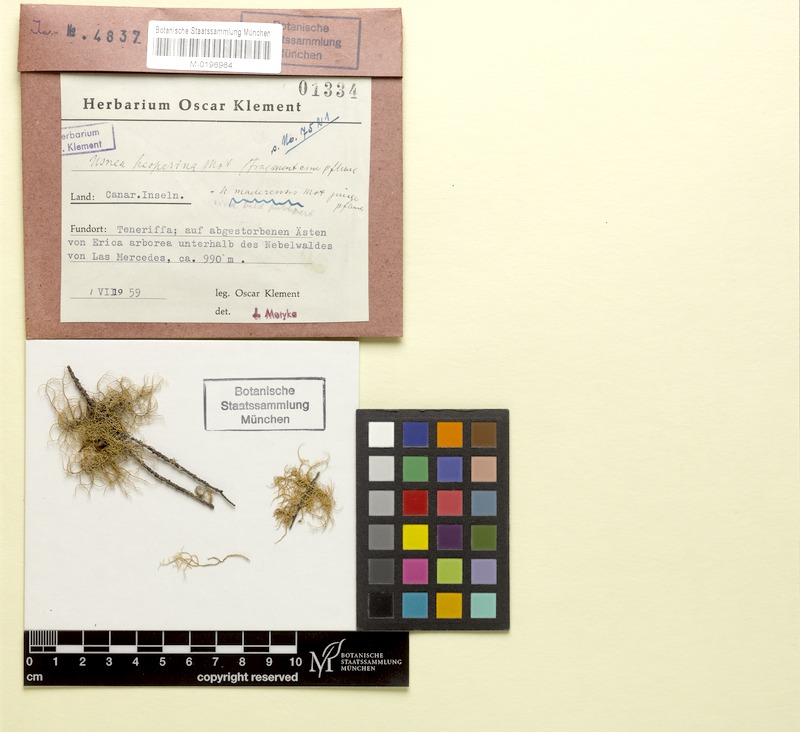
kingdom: Fungi
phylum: Ascomycota
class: Lecanoromycetes
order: Lecanorales
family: Parmeliaceae
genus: Usnea
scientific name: Usnea subgracilis
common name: Beard lichen
